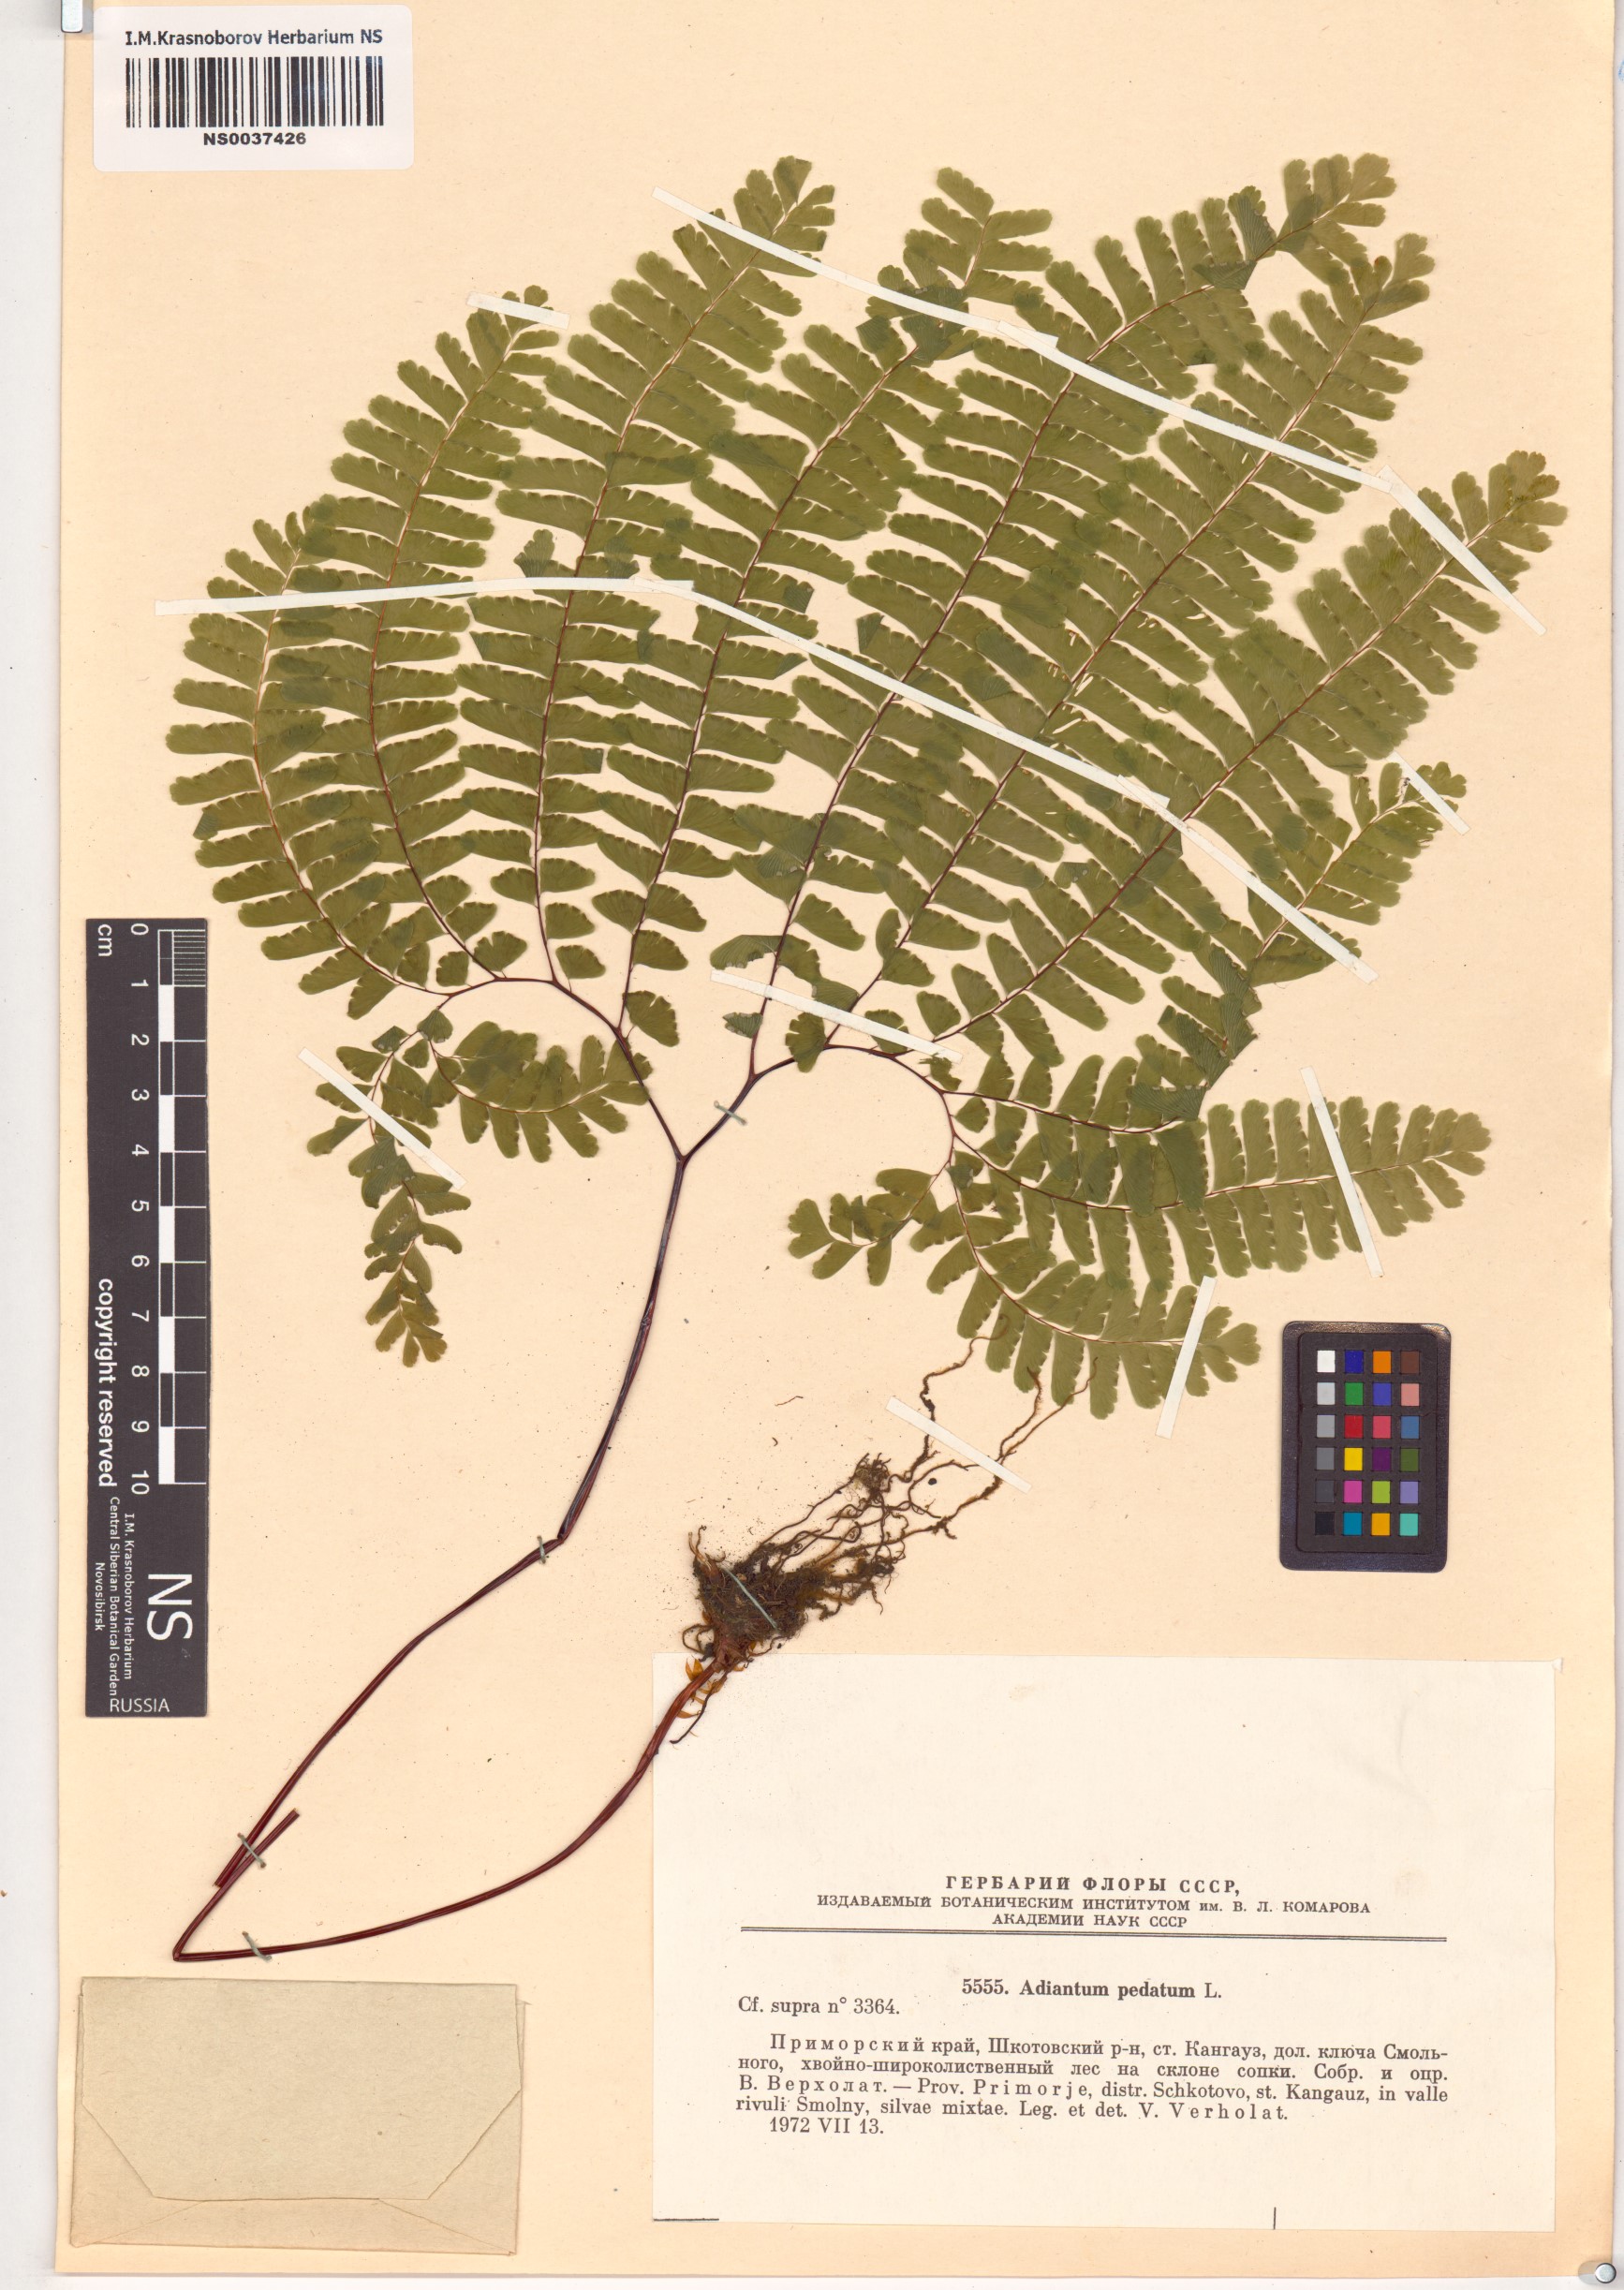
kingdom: Plantae
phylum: Tracheophyta
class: Polypodiopsida
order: Polypodiales
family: Pteridaceae
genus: Adiantum
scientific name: Adiantum pedatum
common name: Five-finger fern
